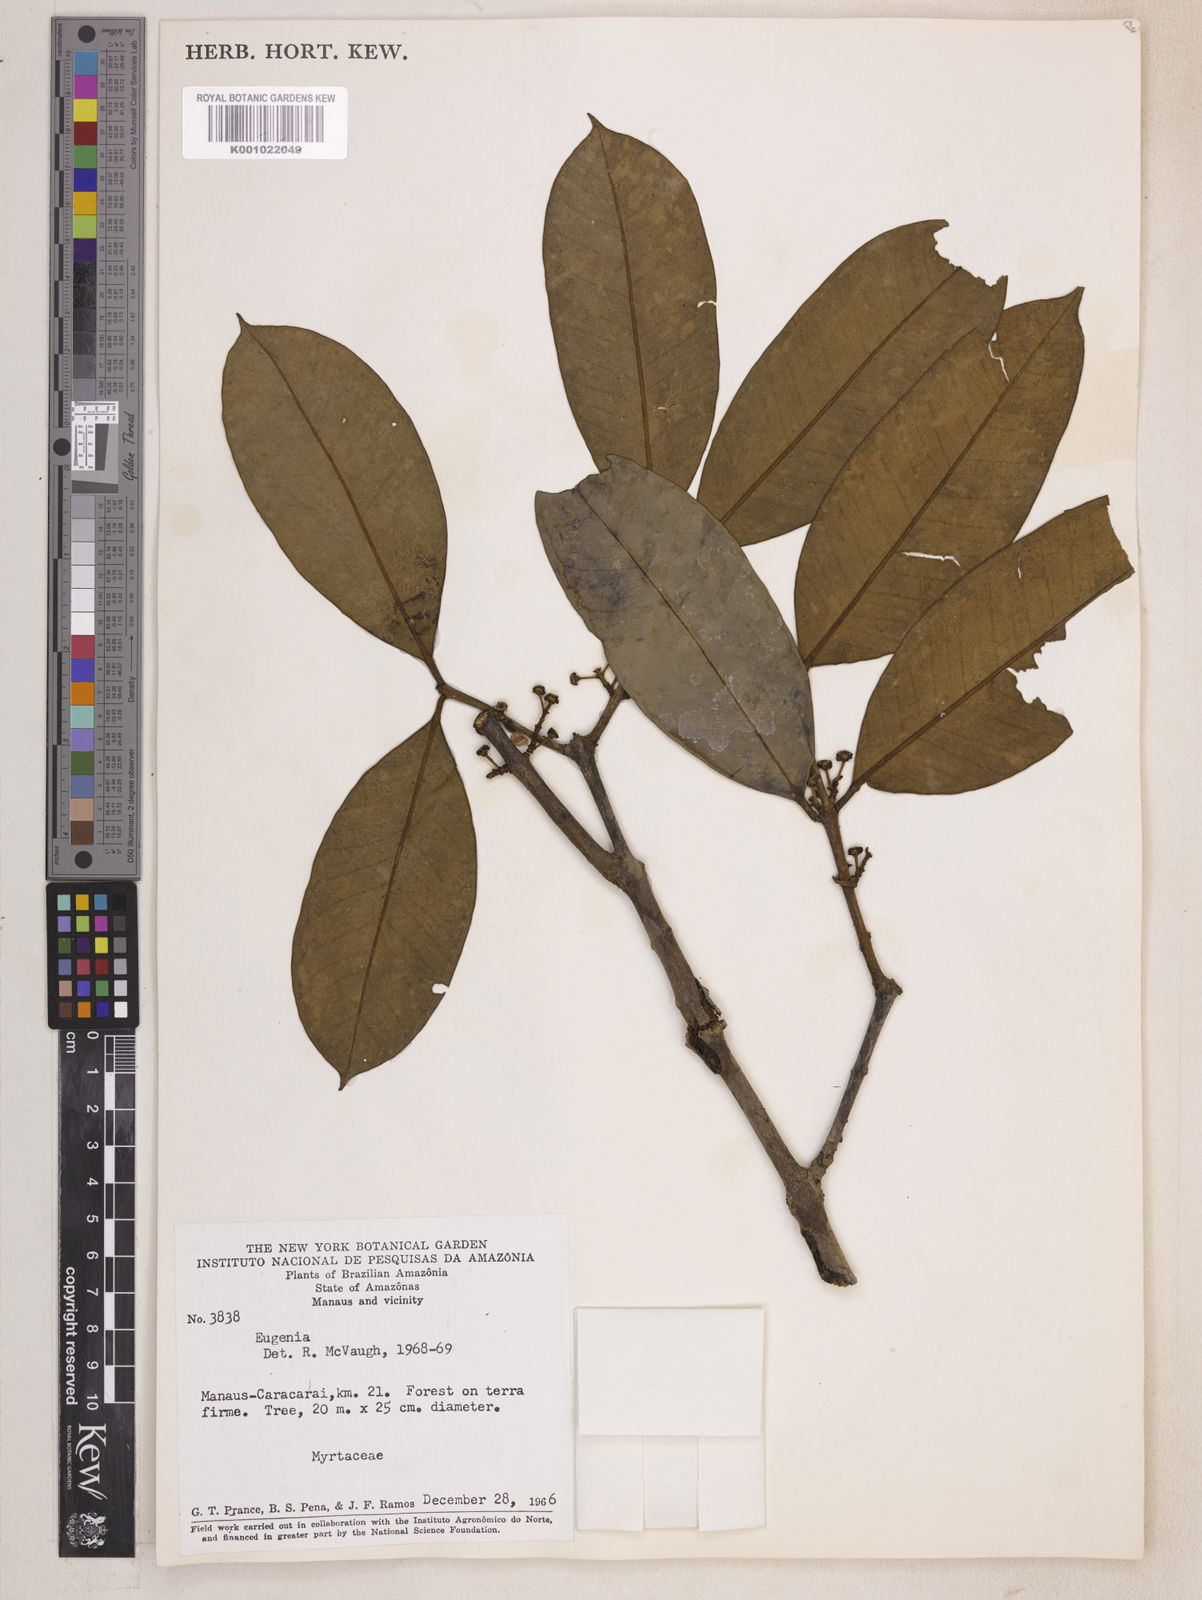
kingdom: Plantae
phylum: Tracheophyta
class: Magnoliopsida
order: Myrtales
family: Myrtaceae
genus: Eugenia
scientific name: Eugenia caducipetala
